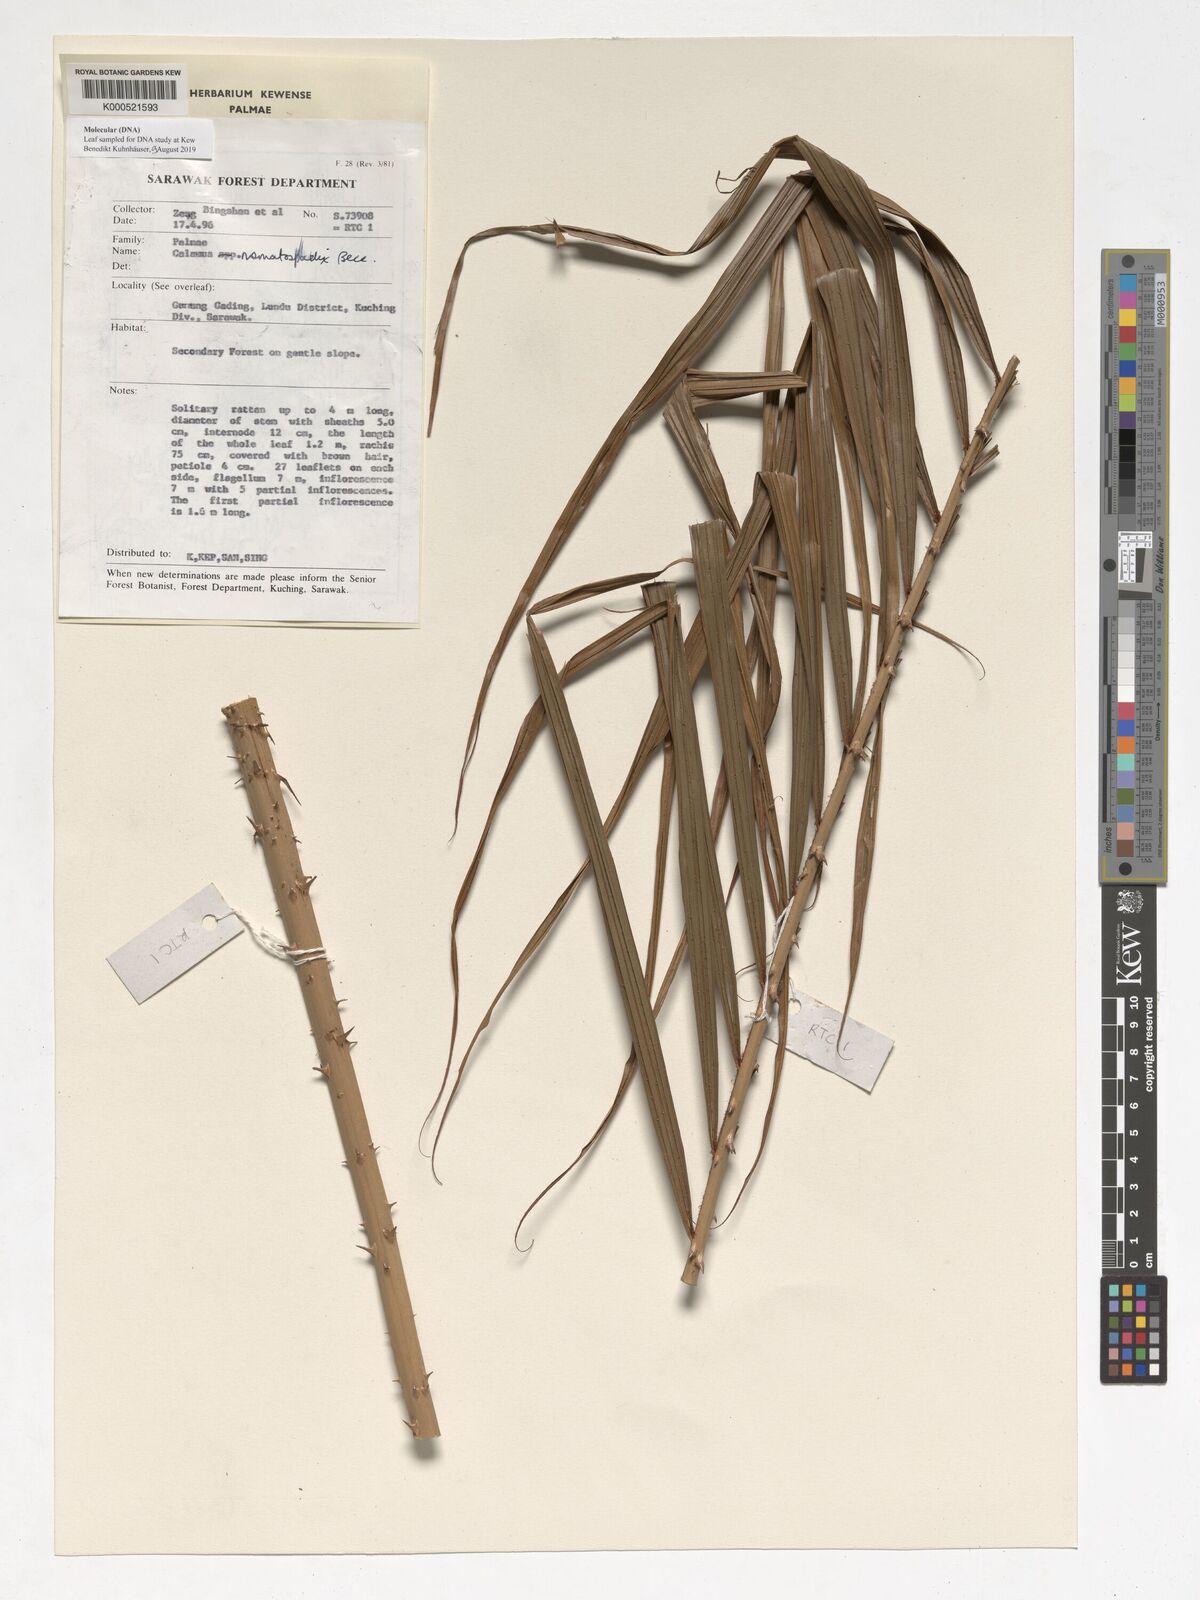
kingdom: Plantae
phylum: Tracheophyta
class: Liliopsida
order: Arecales
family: Arecaceae
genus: Calamus
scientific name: Calamus nematospadix
